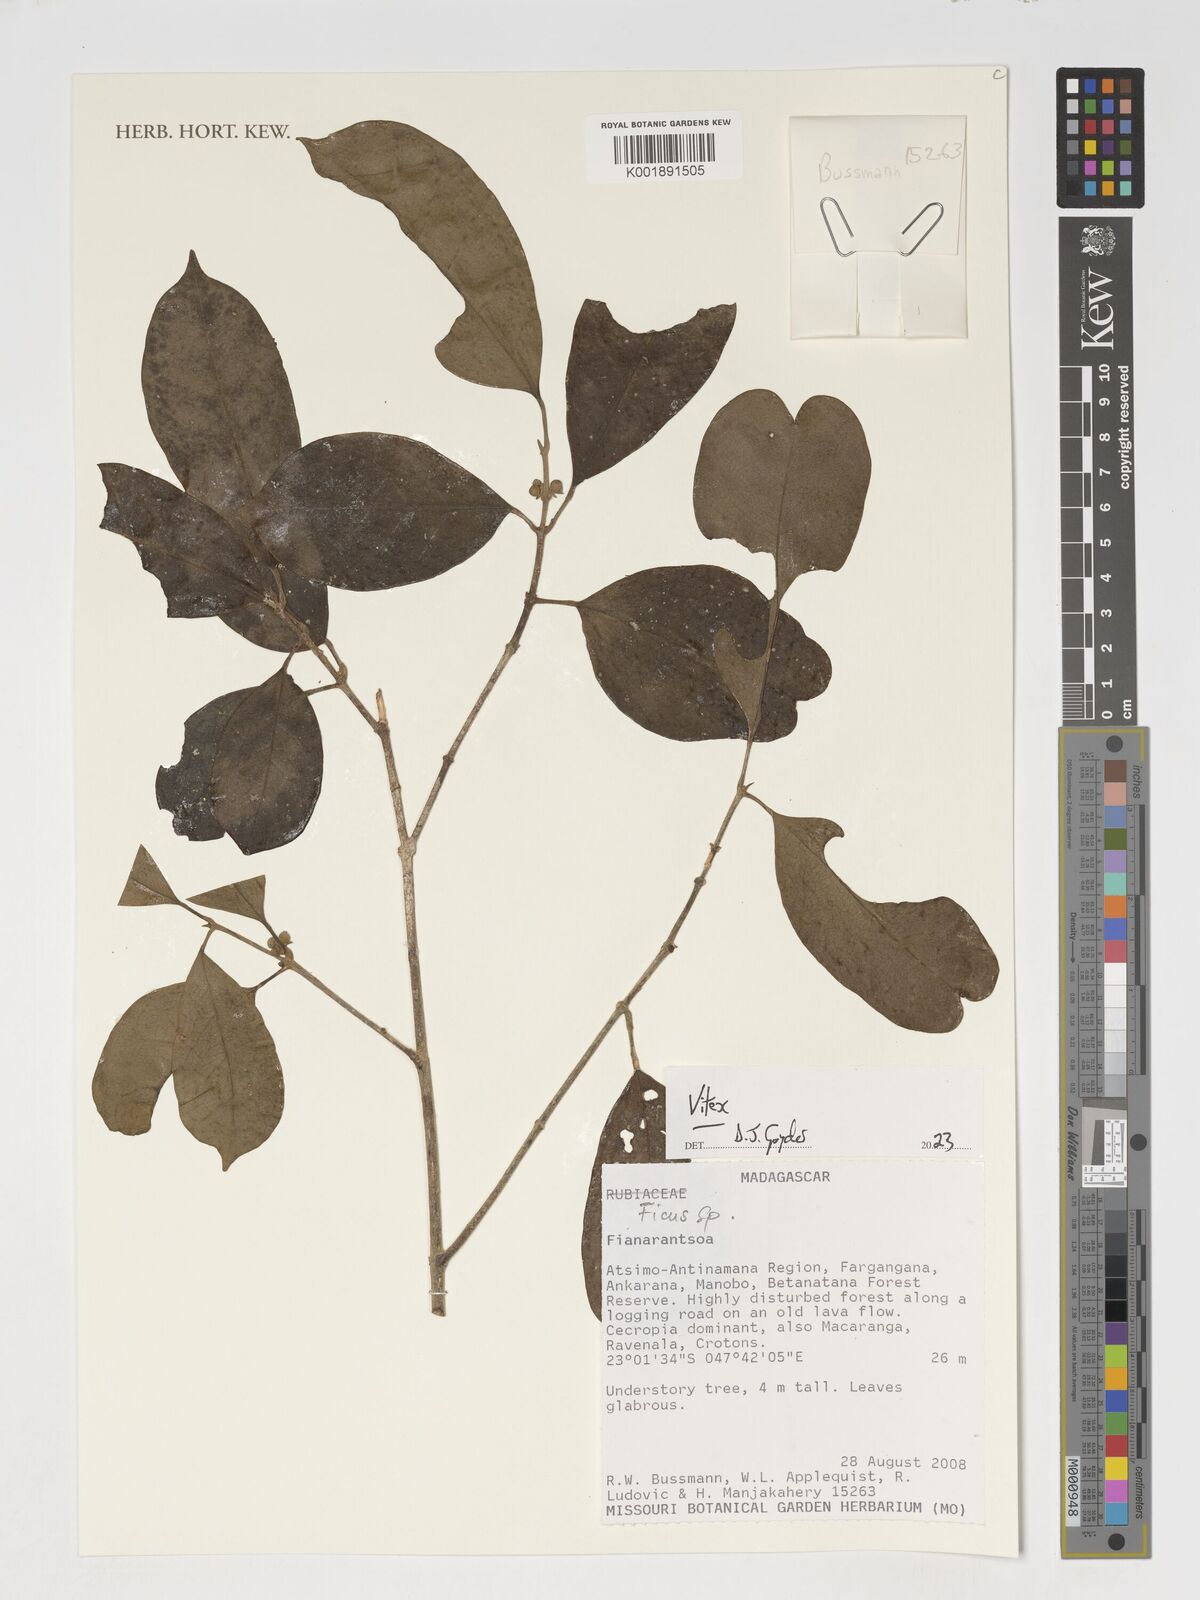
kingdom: Plantae
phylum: Tracheophyta
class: Magnoliopsida
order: Lamiales
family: Lamiaceae
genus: Vitex
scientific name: Vitex
